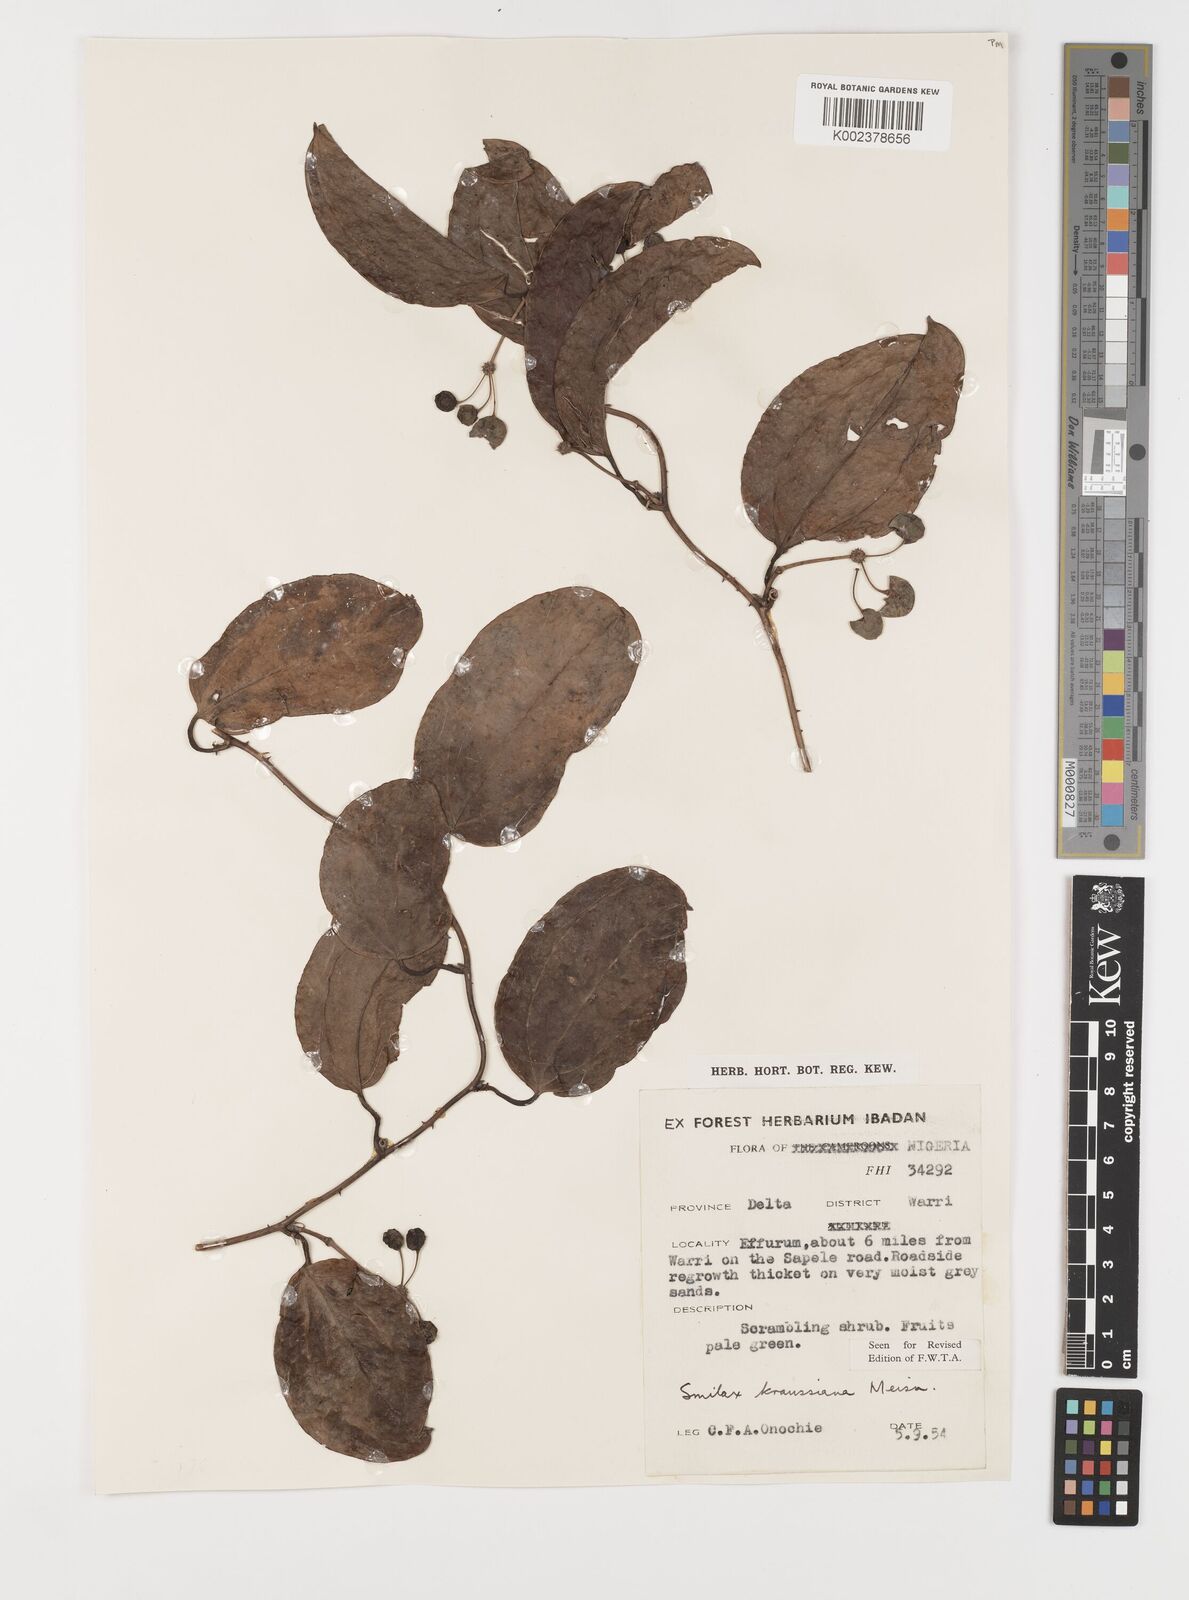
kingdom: Plantae
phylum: Tracheophyta
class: Liliopsida
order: Liliales
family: Smilacaceae
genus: Smilax
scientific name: Smilax anceps
